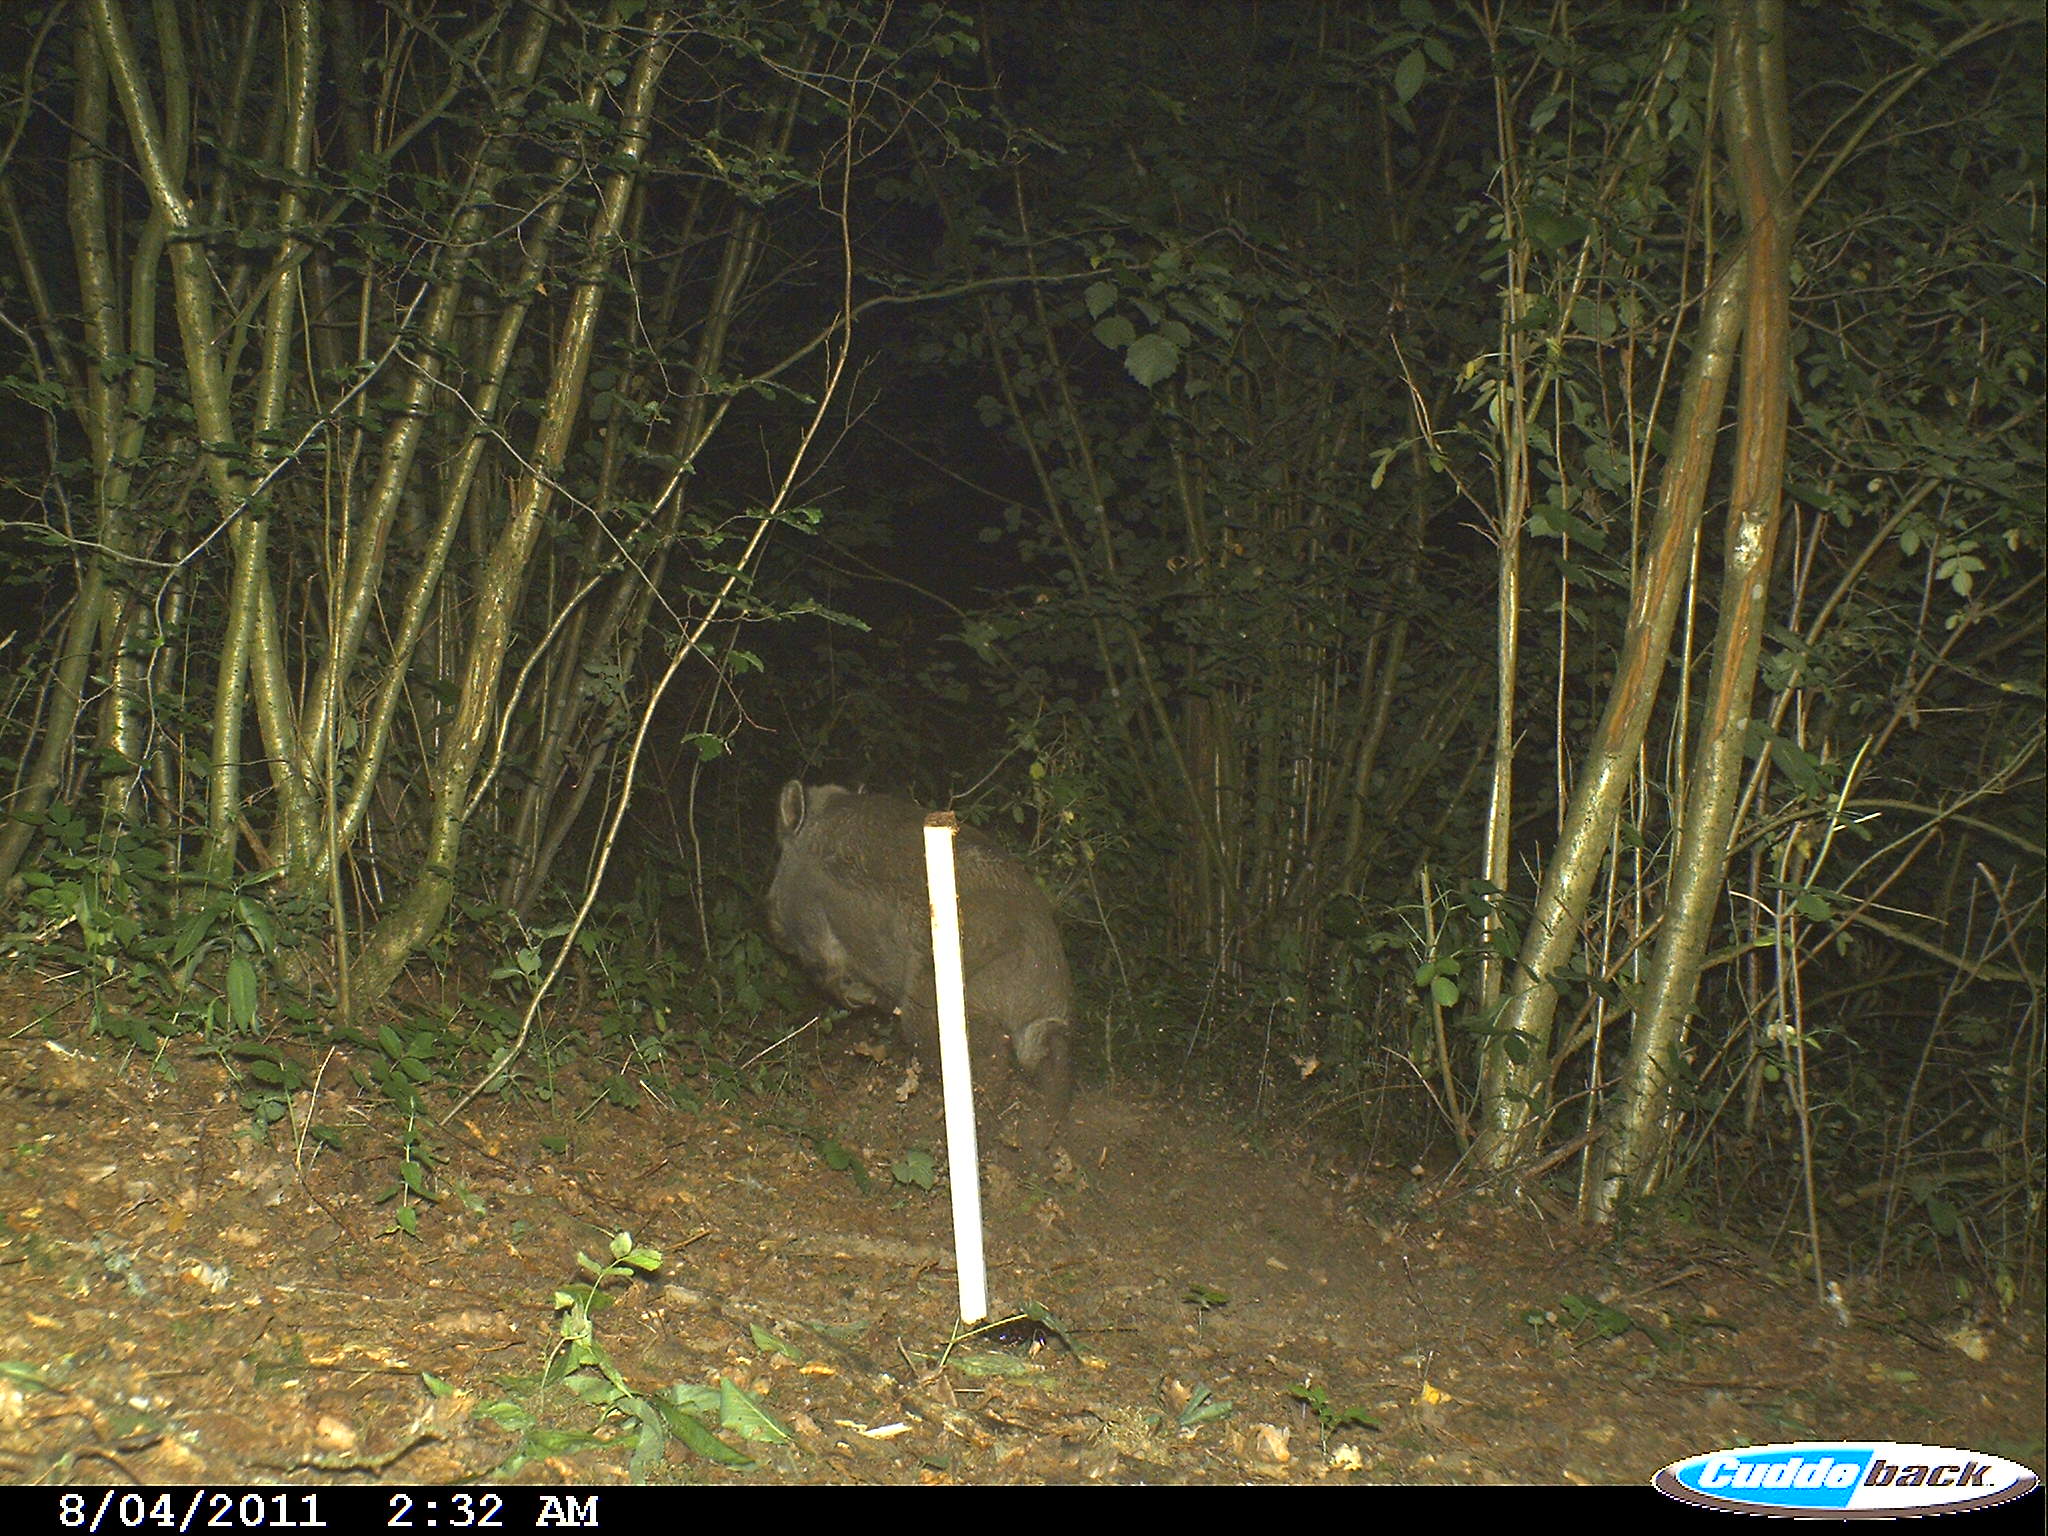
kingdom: Animalia
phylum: Chordata
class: Mammalia
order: Artiodactyla
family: Suidae
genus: Sus
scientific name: Sus scrofa
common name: Wild boar
